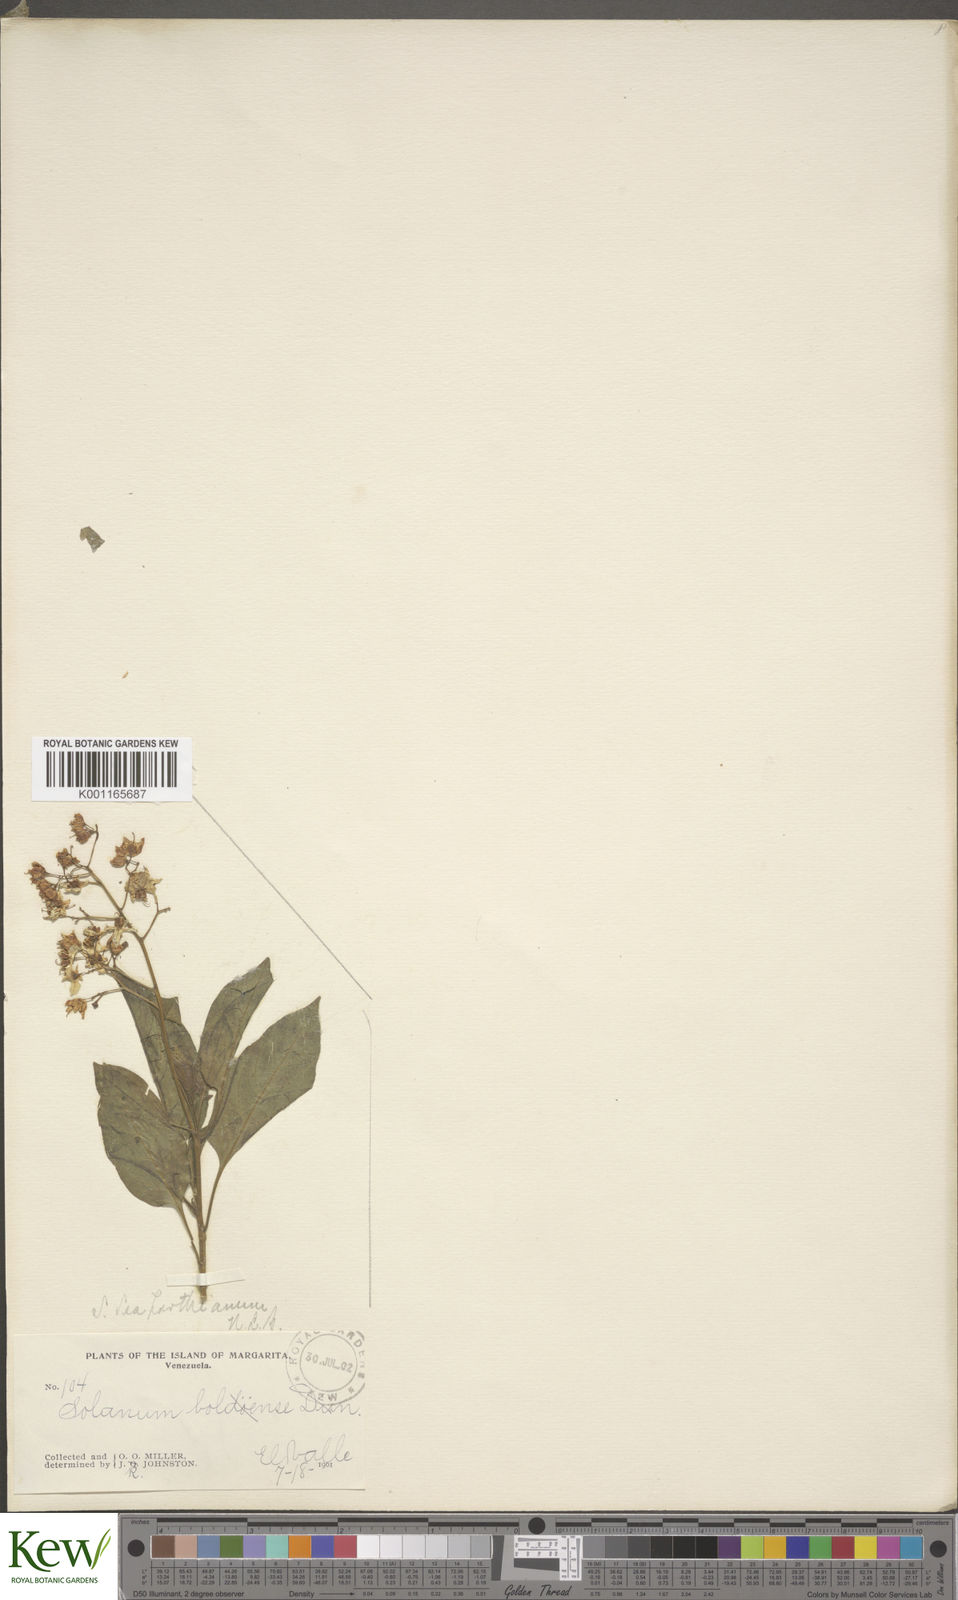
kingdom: Plantae
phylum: Tracheophyta
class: Magnoliopsida
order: Solanales
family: Solanaceae
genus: Solanum
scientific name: Solanum seaforthianum
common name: Brazilian nightshade
